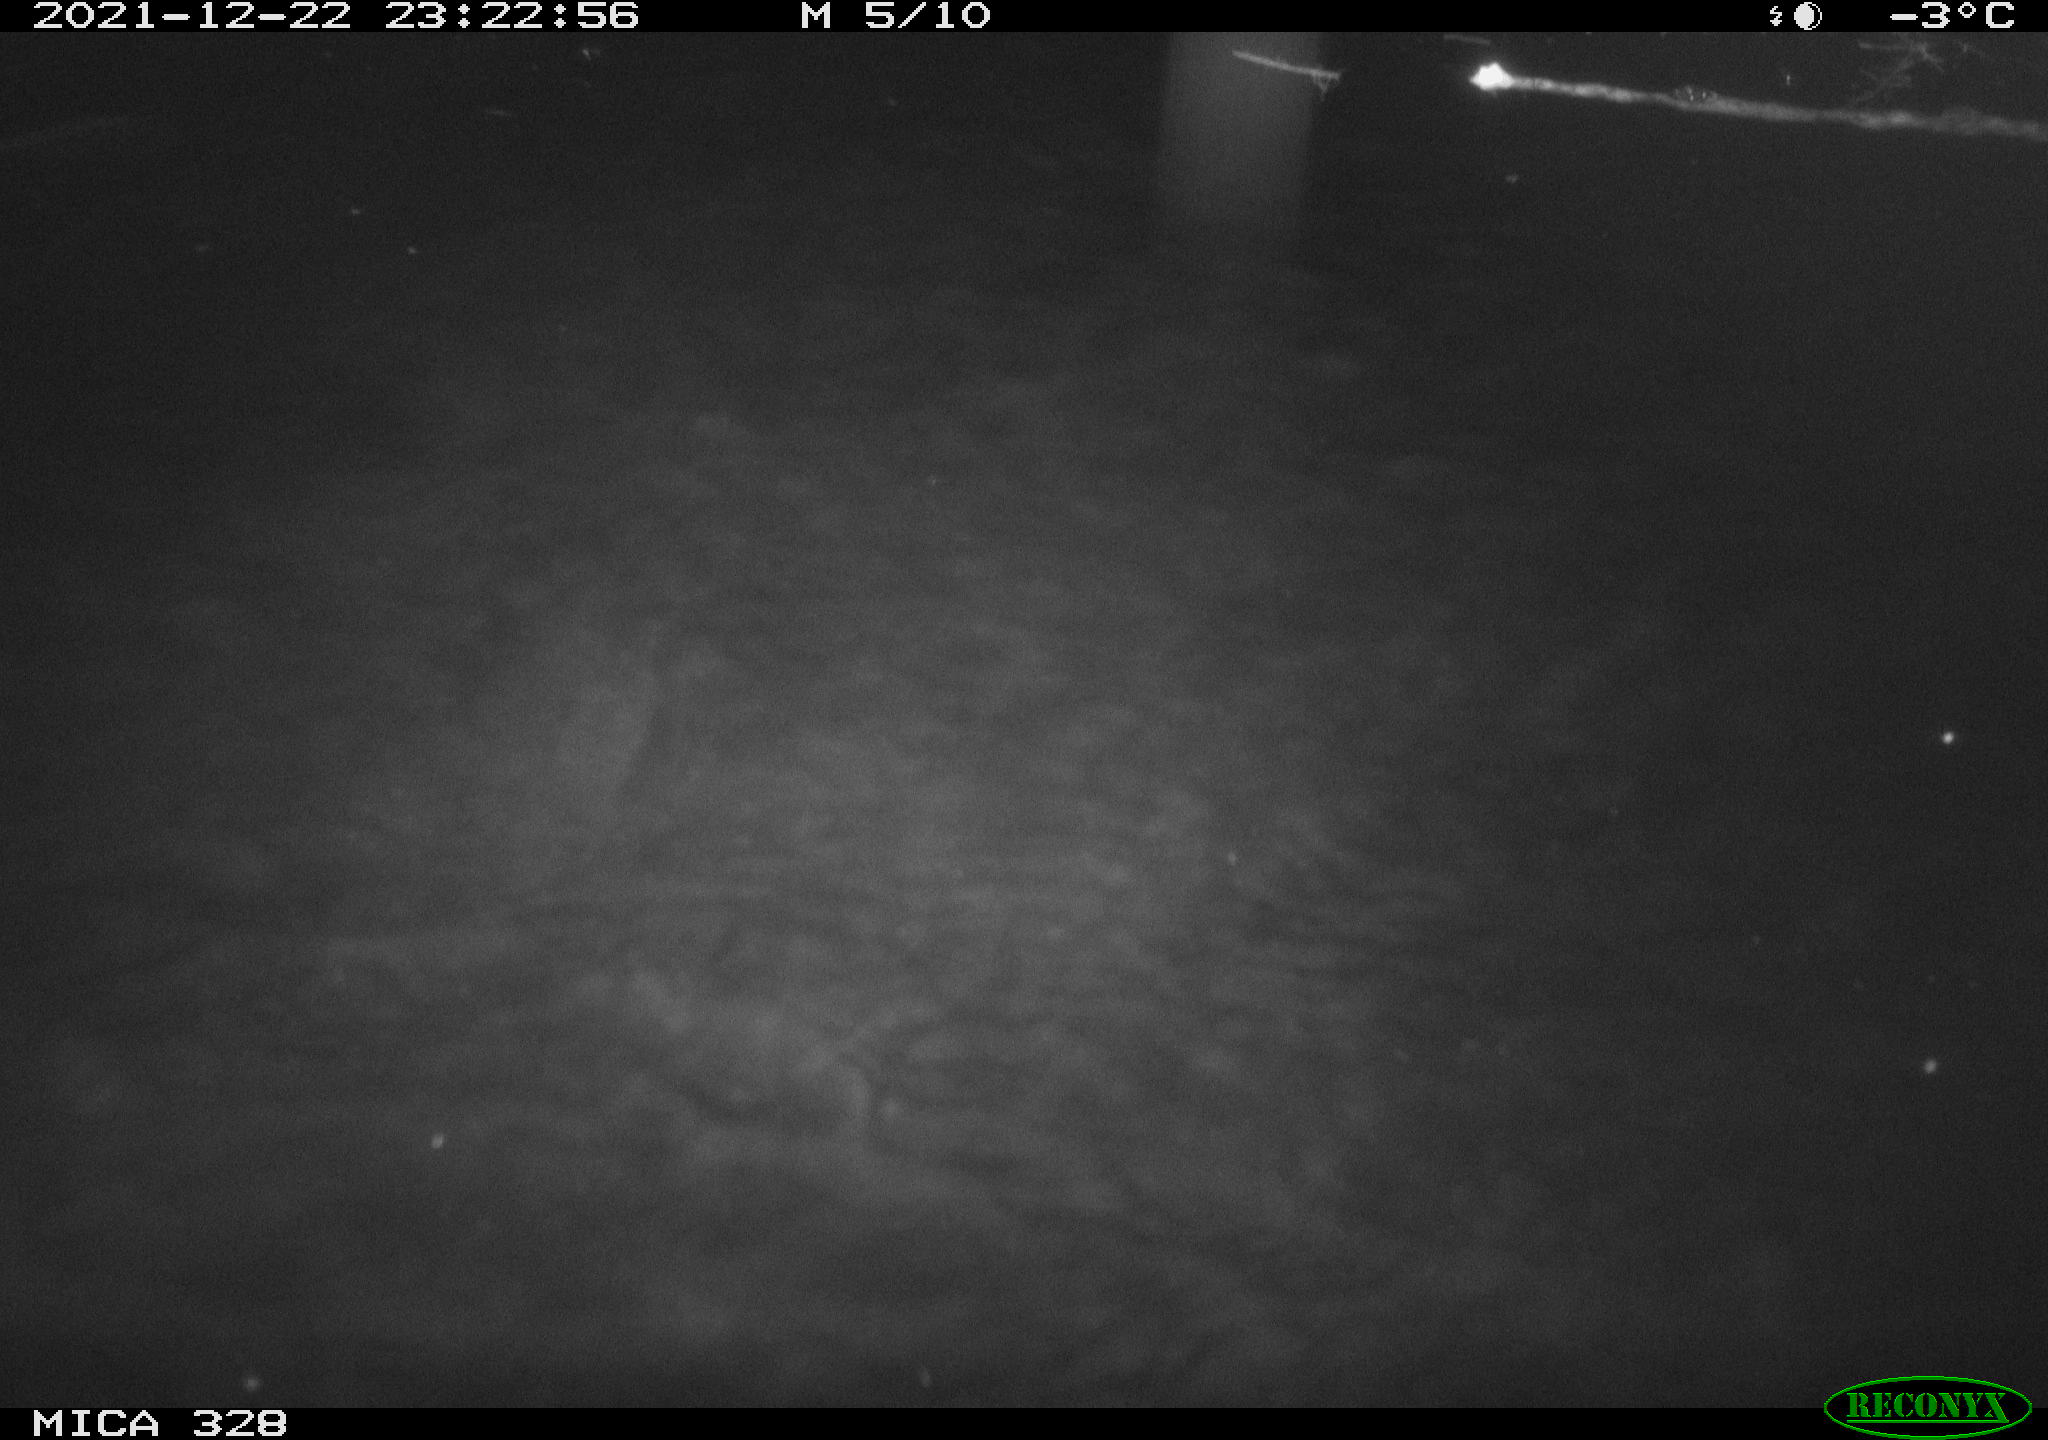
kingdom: Animalia
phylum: Chordata
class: Aves
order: Anseriformes
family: Anatidae
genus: Anas
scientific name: Anas platyrhynchos
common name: Mallard
